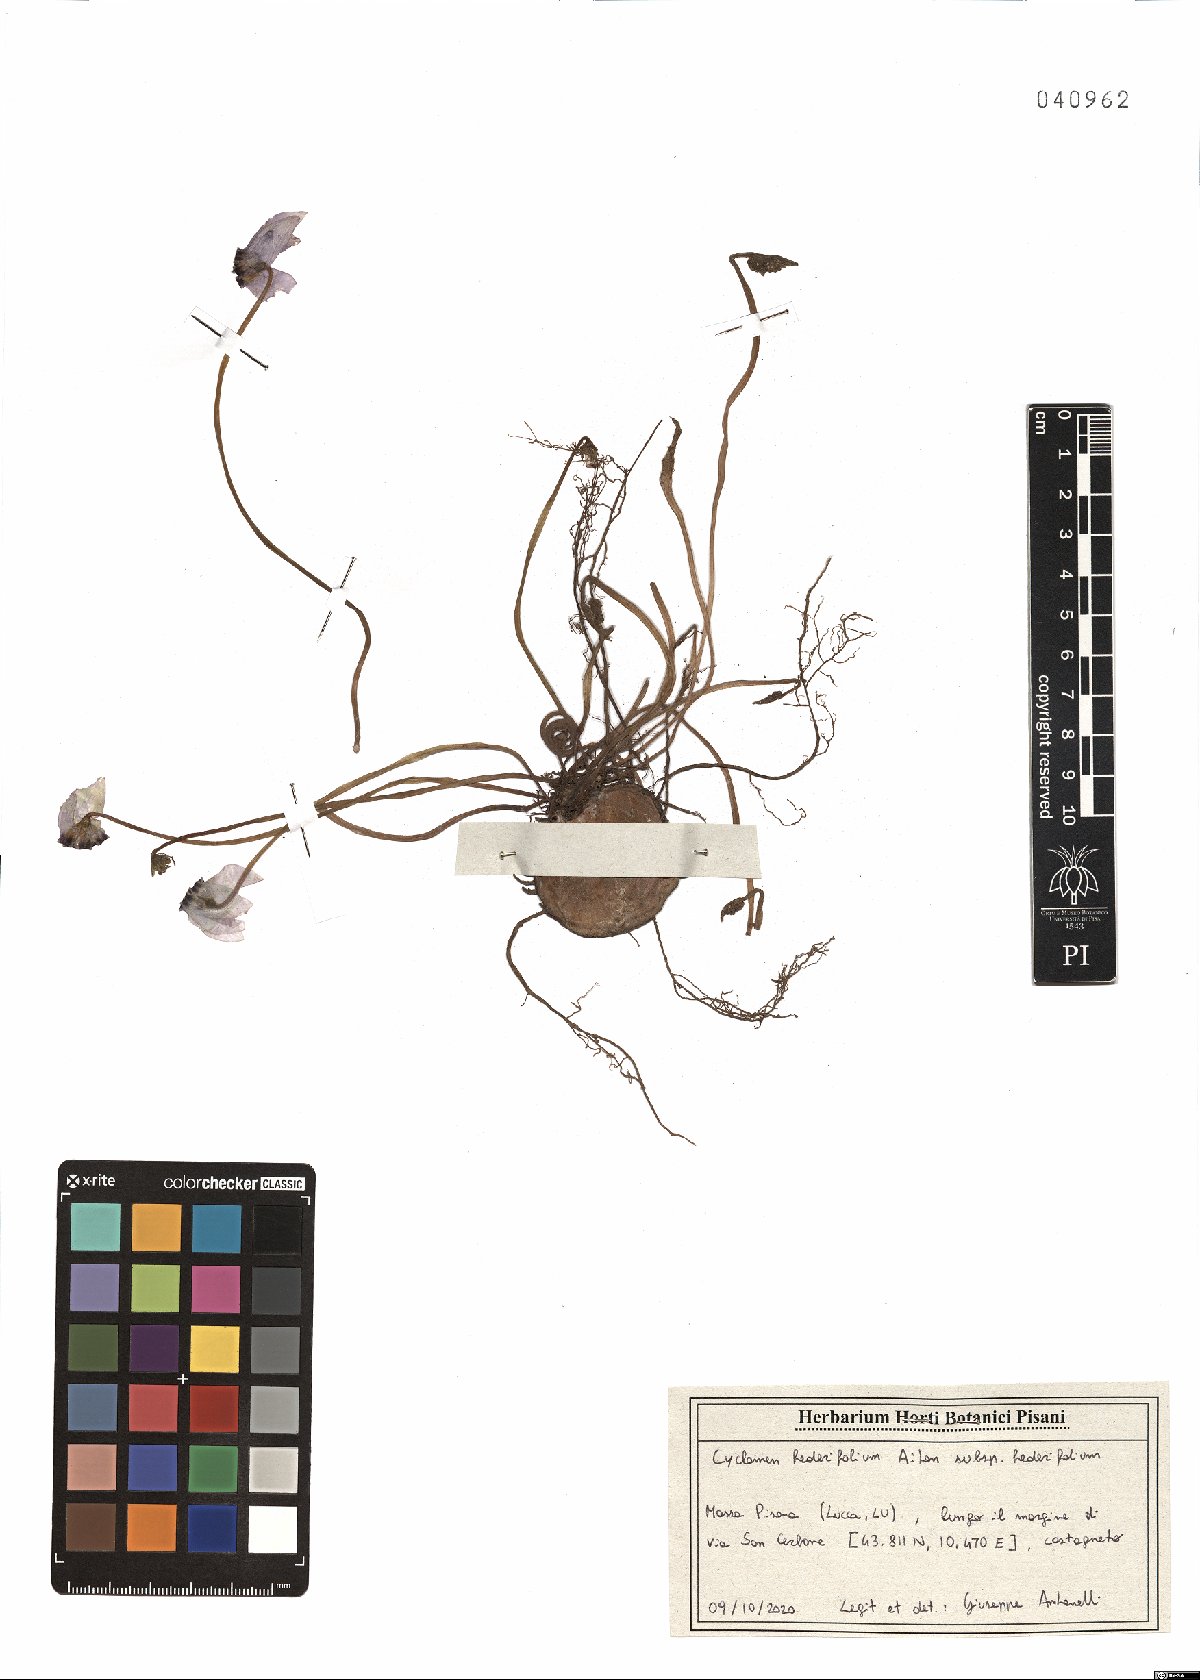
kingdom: Plantae
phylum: Tracheophyta
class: Magnoliopsida
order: Ericales
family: Primulaceae
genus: Cyclamen
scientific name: Cyclamen hederifolium
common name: Sowbread
